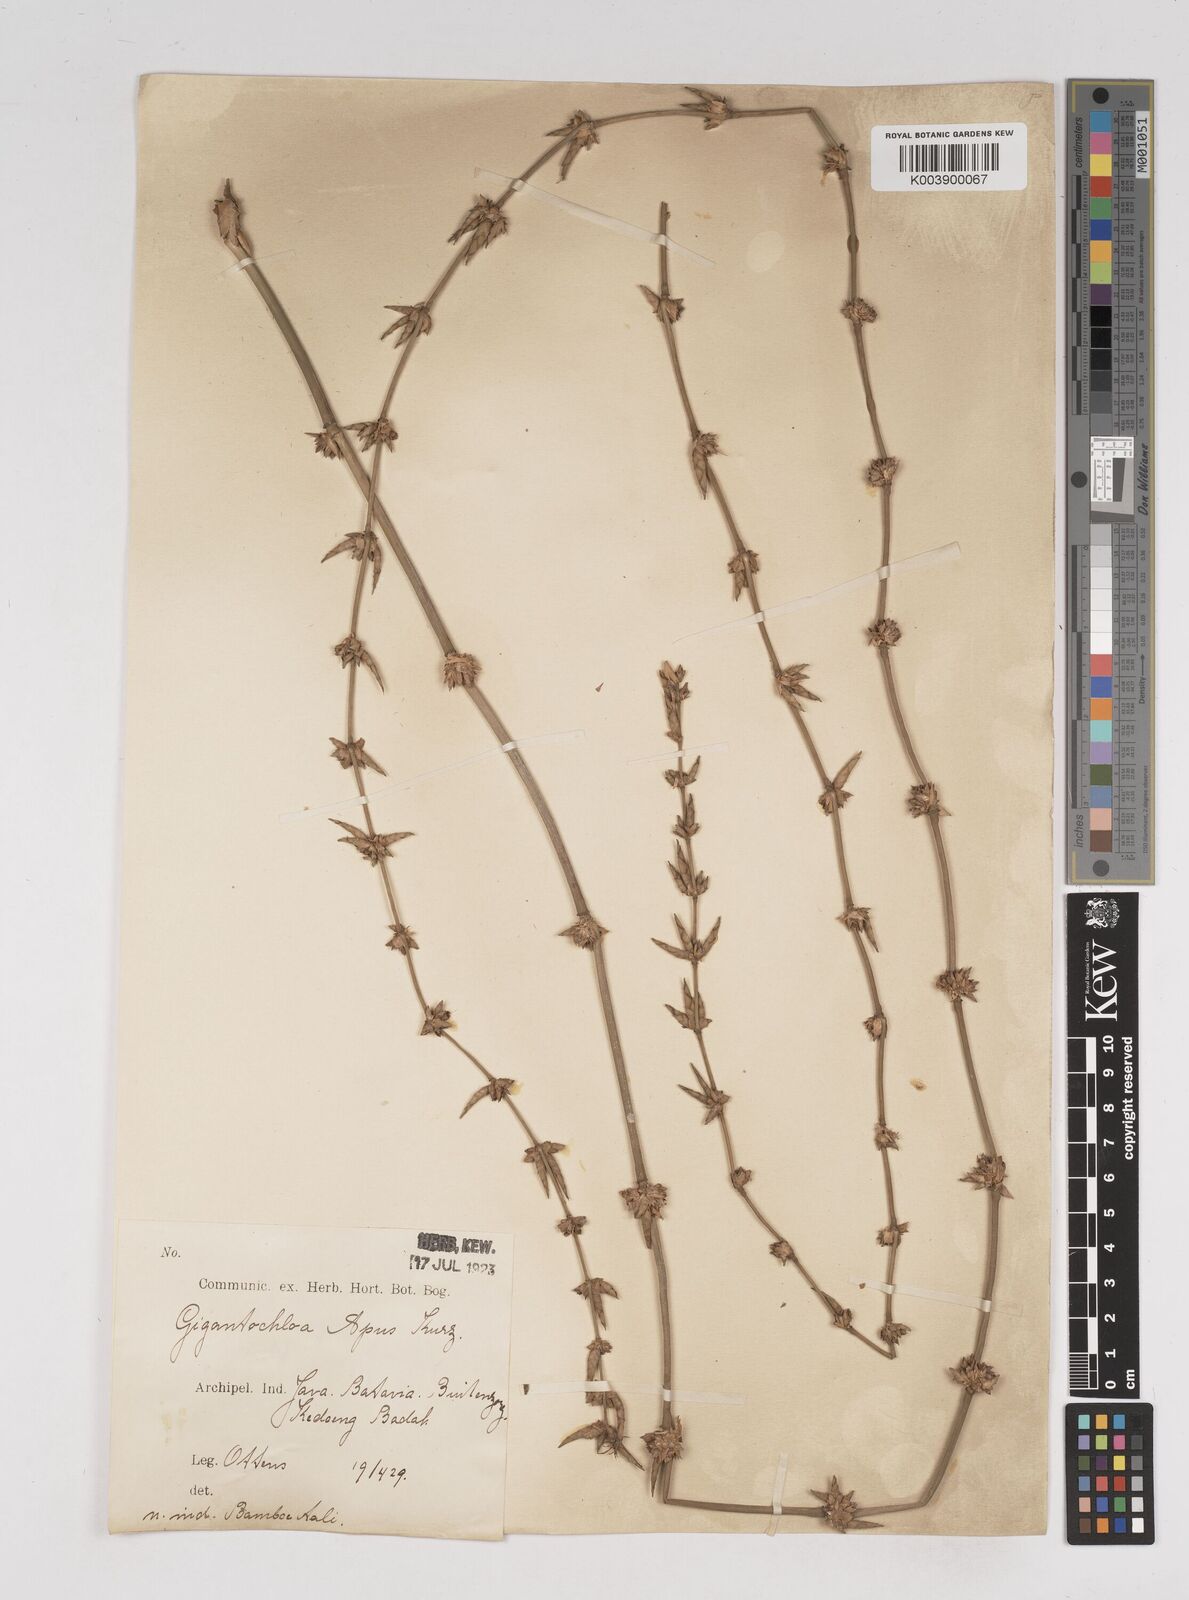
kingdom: Plantae
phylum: Tracheophyta
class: Liliopsida
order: Poales
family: Poaceae
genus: Gigantochloa
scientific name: Gigantochloa apus
